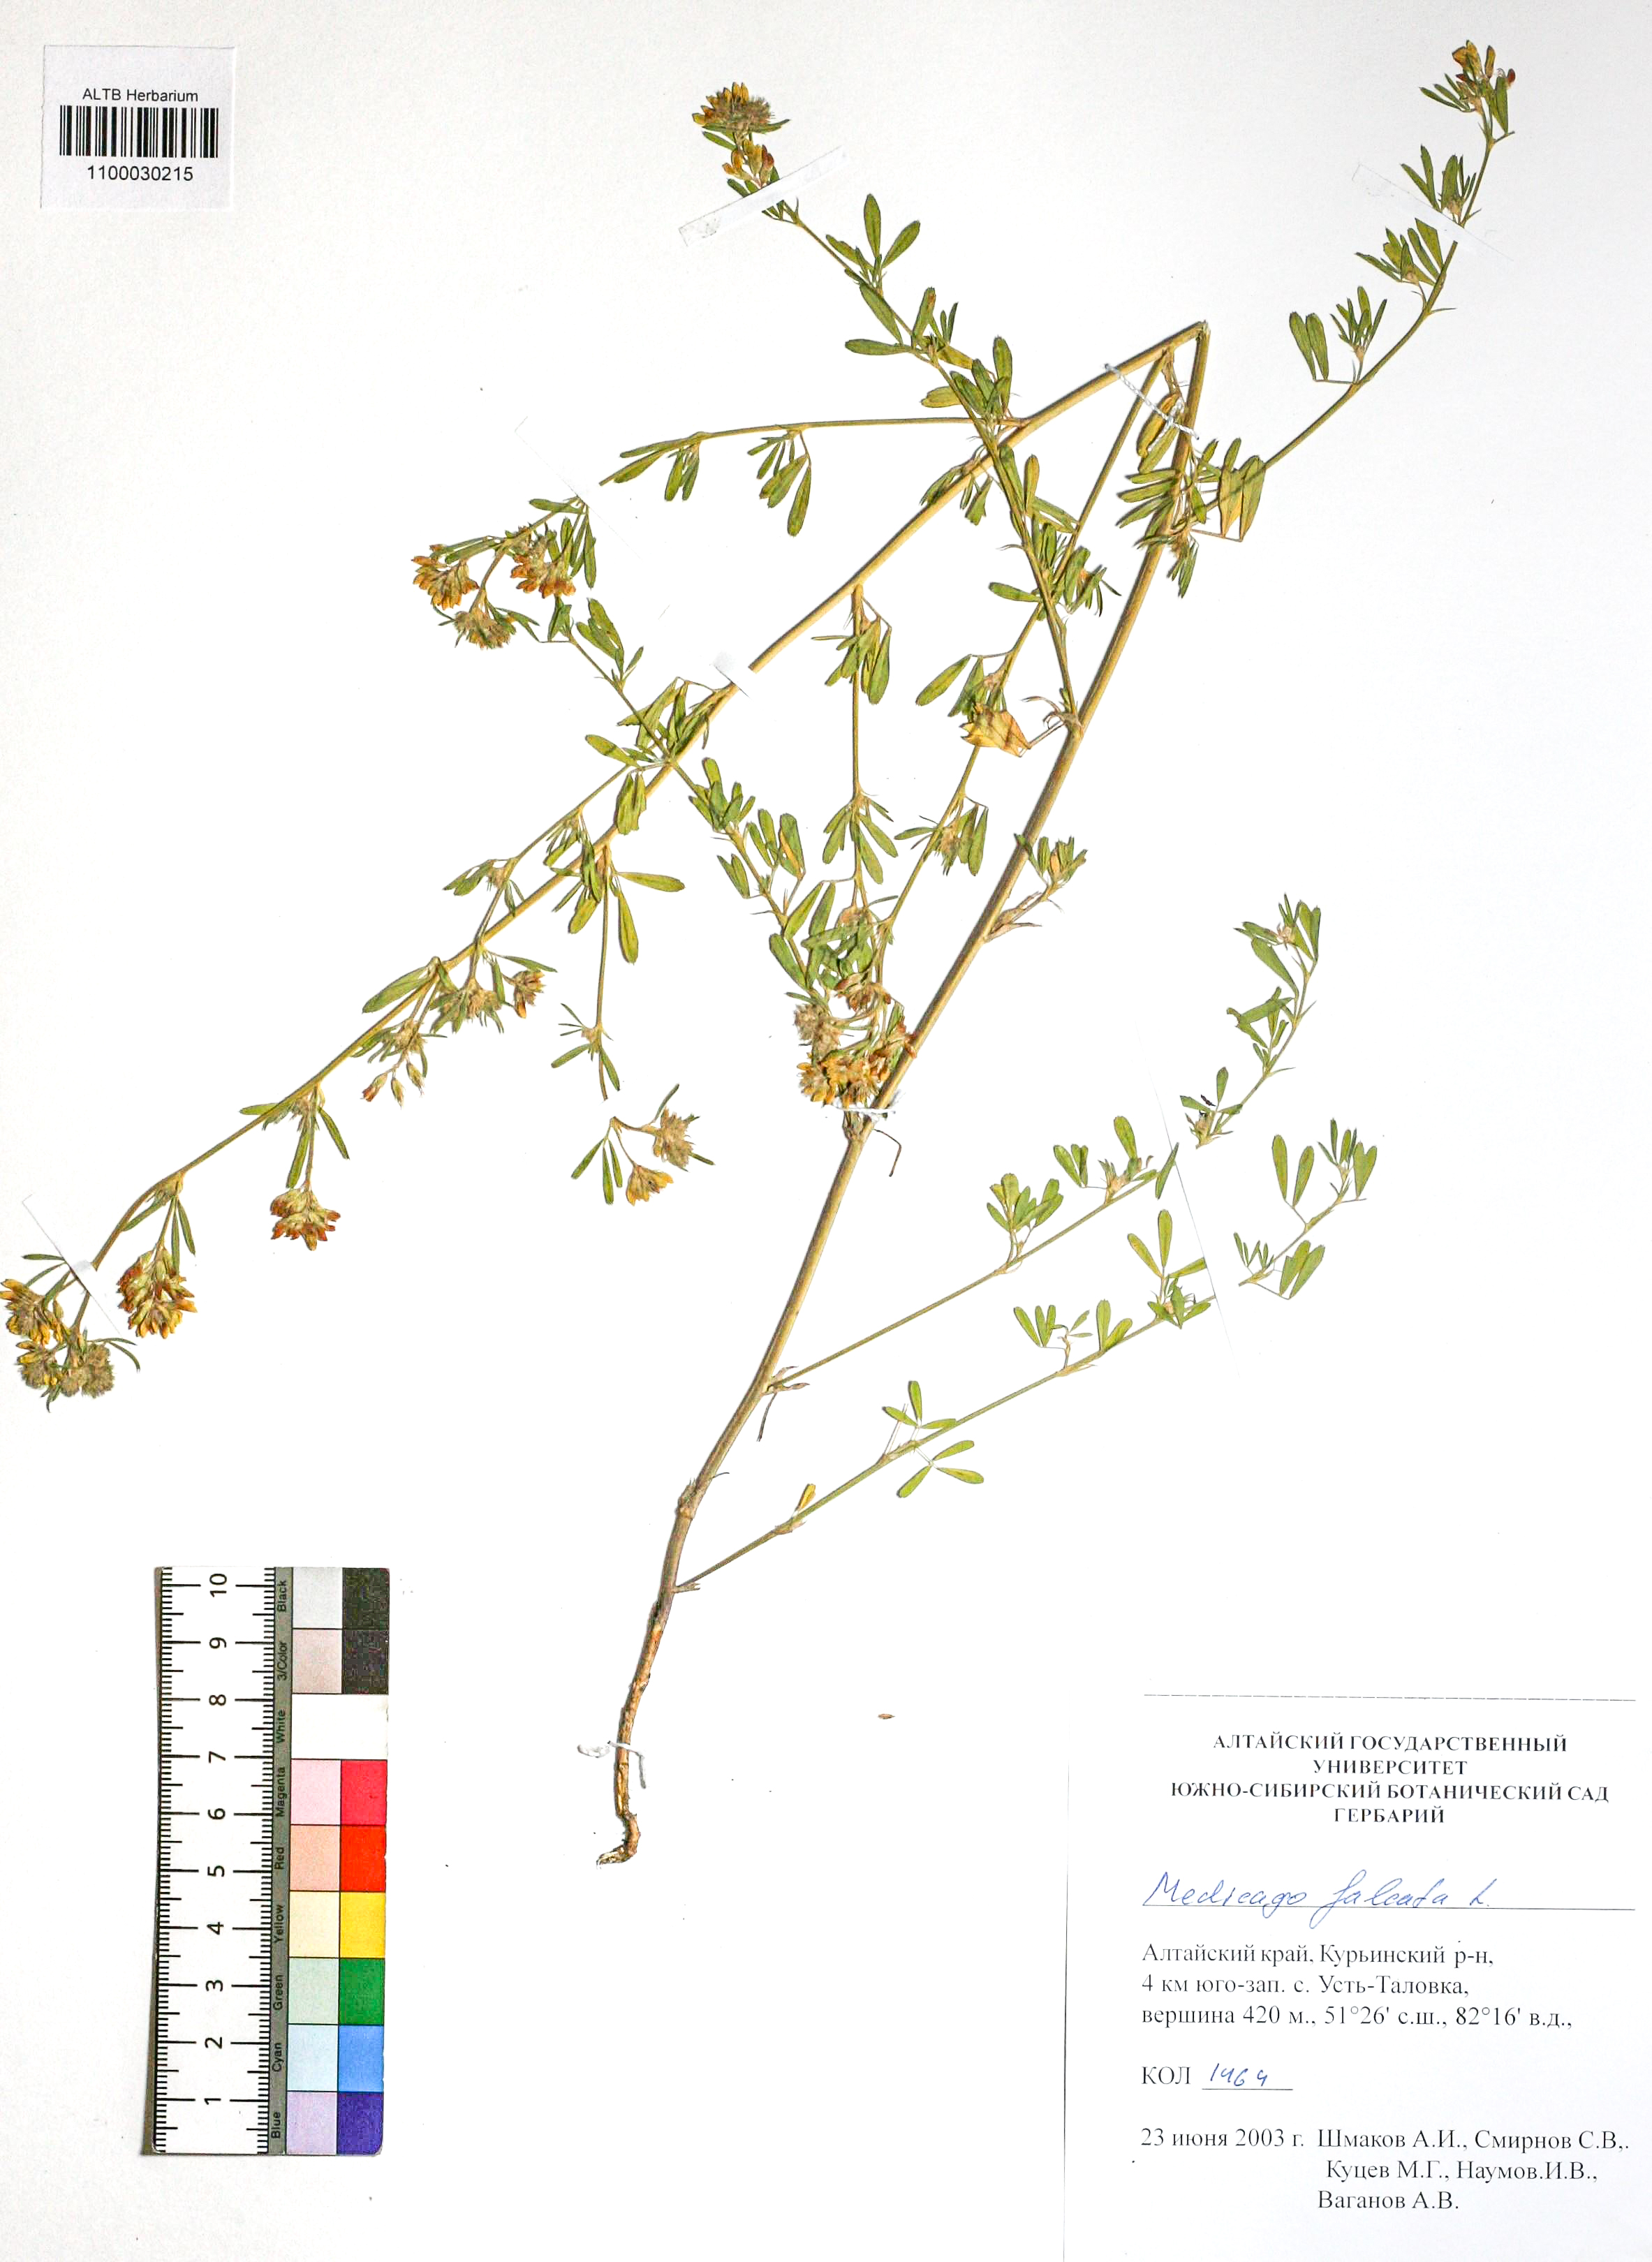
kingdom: Plantae
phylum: Tracheophyta
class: Magnoliopsida
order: Fabales
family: Fabaceae
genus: Medicago
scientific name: Medicago falcata
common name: Sickle medick
